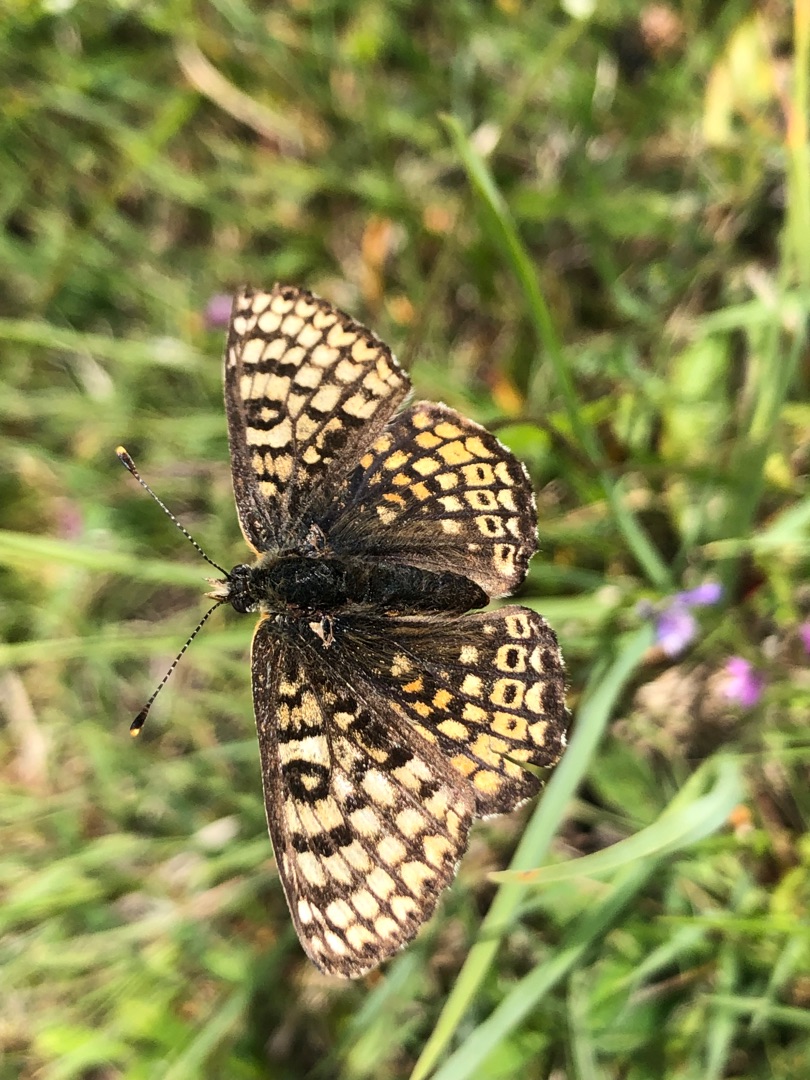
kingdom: Animalia
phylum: Arthropoda
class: Insecta
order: Lepidoptera
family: Nymphalidae
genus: Melitaea
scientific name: Melitaea cinxia
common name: Okkergul pletvinge
